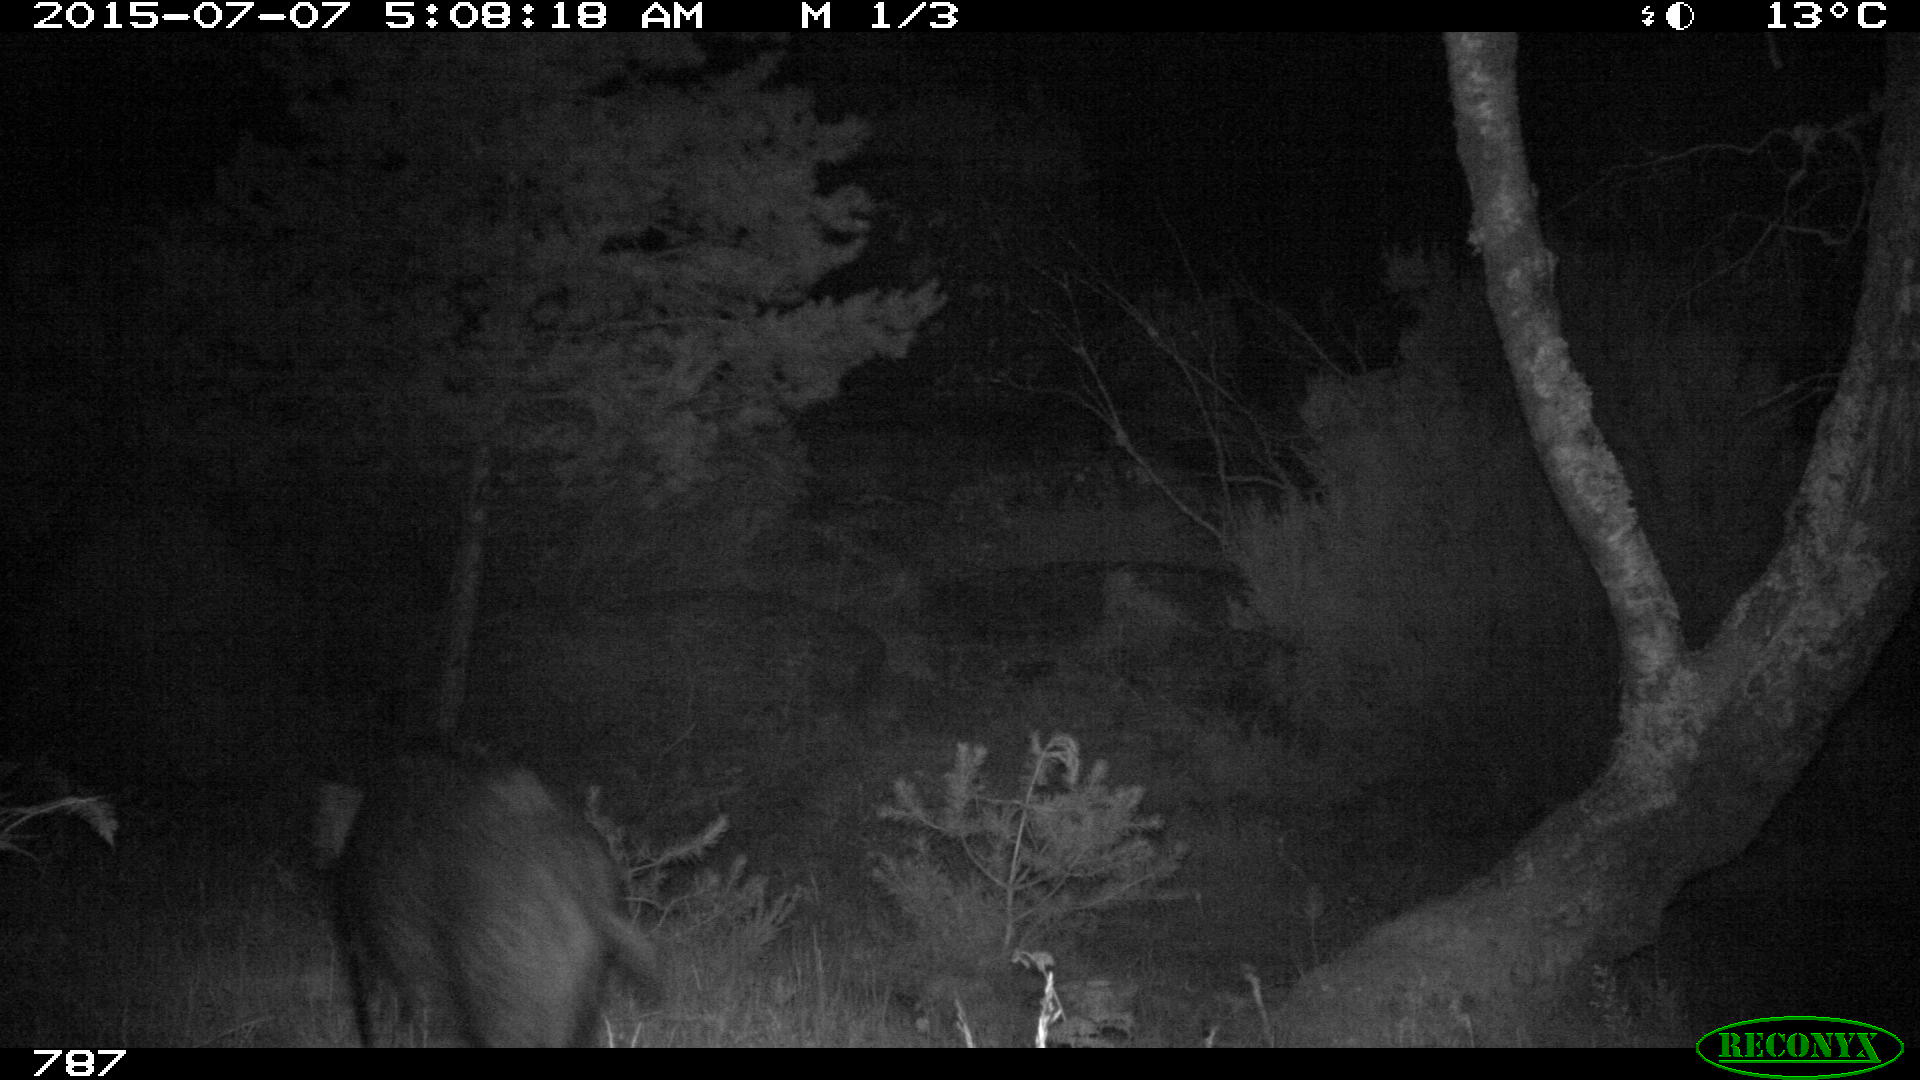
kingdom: Animalia
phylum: Chordata
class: Mammalia
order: Artiodactyla
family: Suidae
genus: Sus
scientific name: Sus scrofa
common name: Wild boar
